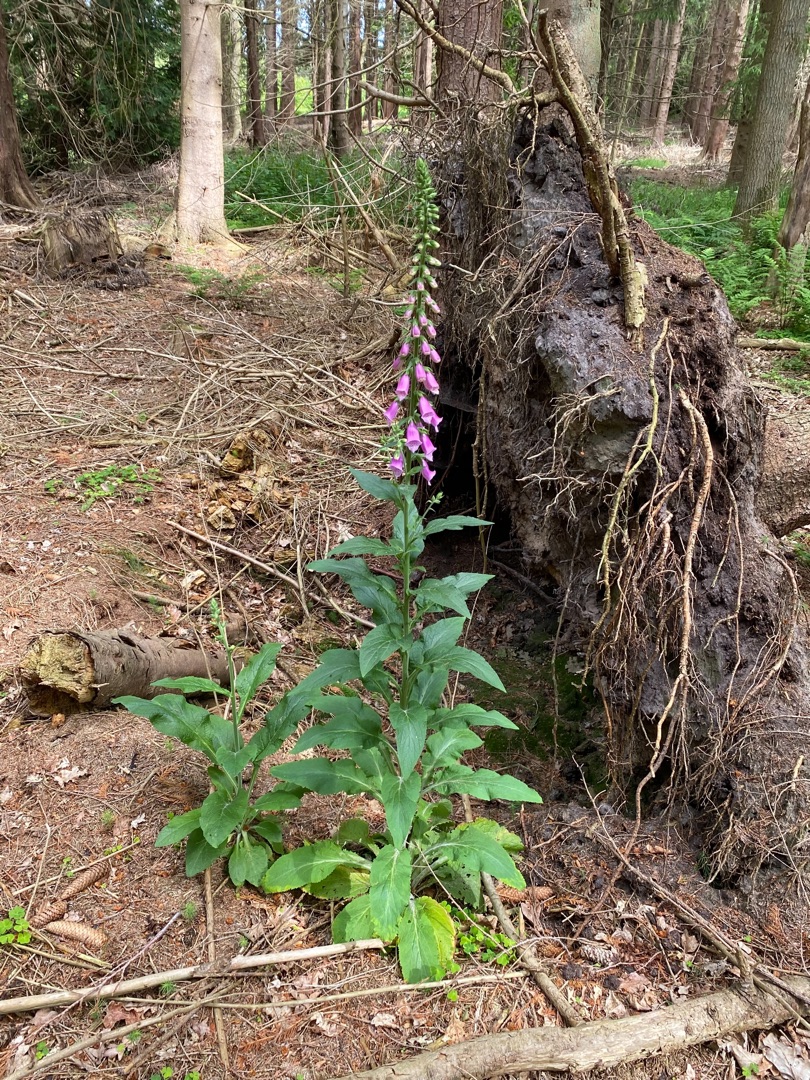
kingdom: Plantae
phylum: Tracheophyta
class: Magnoliopsida
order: Lamiales
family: Plantaginaceae
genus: Digitalis
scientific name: Digitalis purpurea
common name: Almindelig fingerbøl
